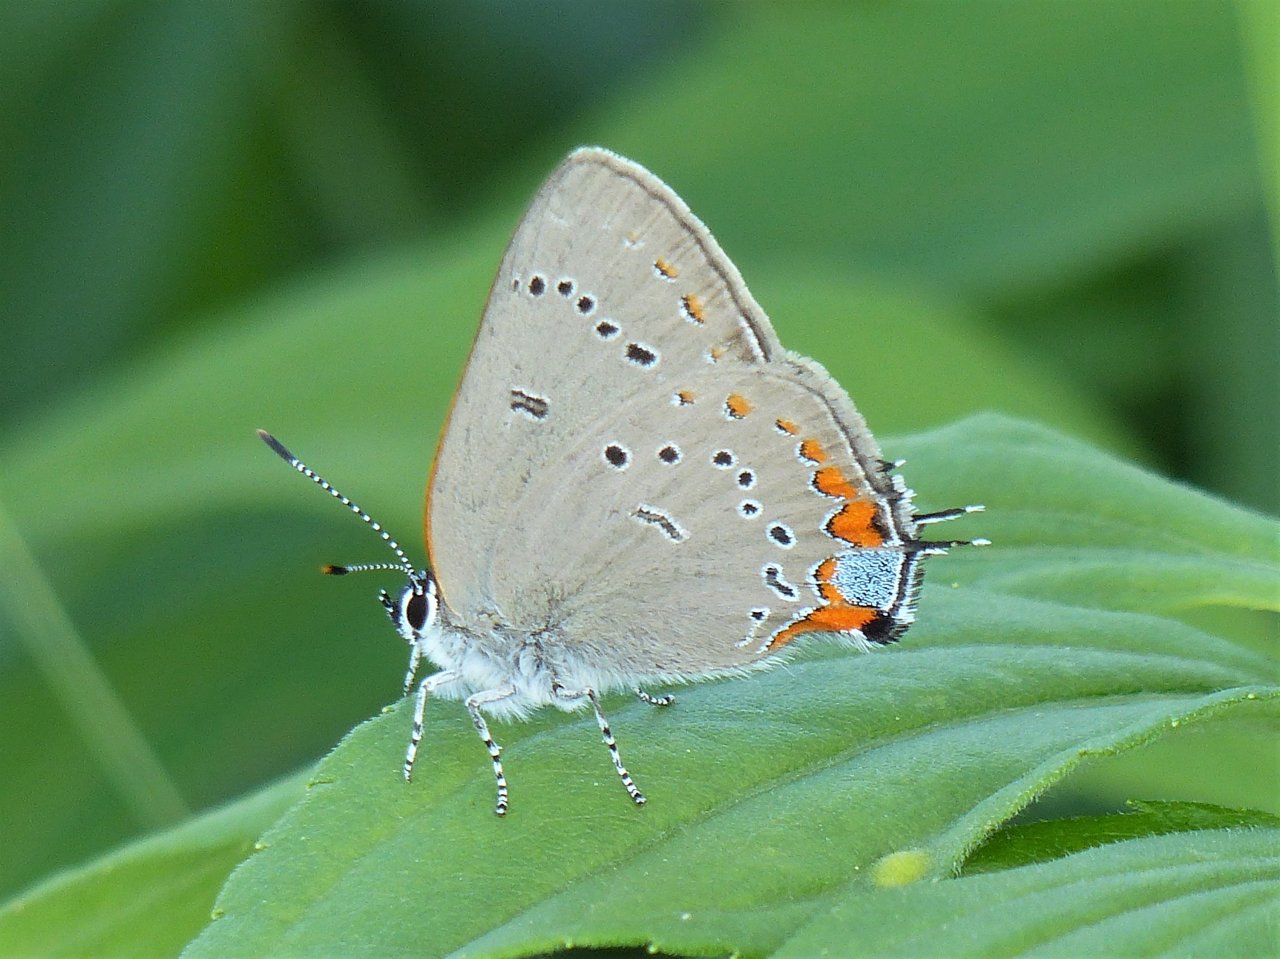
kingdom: Animalia
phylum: Arthropoda
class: Insecta
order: Lepidoptera
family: Lycaenidae
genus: Strymon
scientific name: Strymon acadica
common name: Acadian Hairstreak
